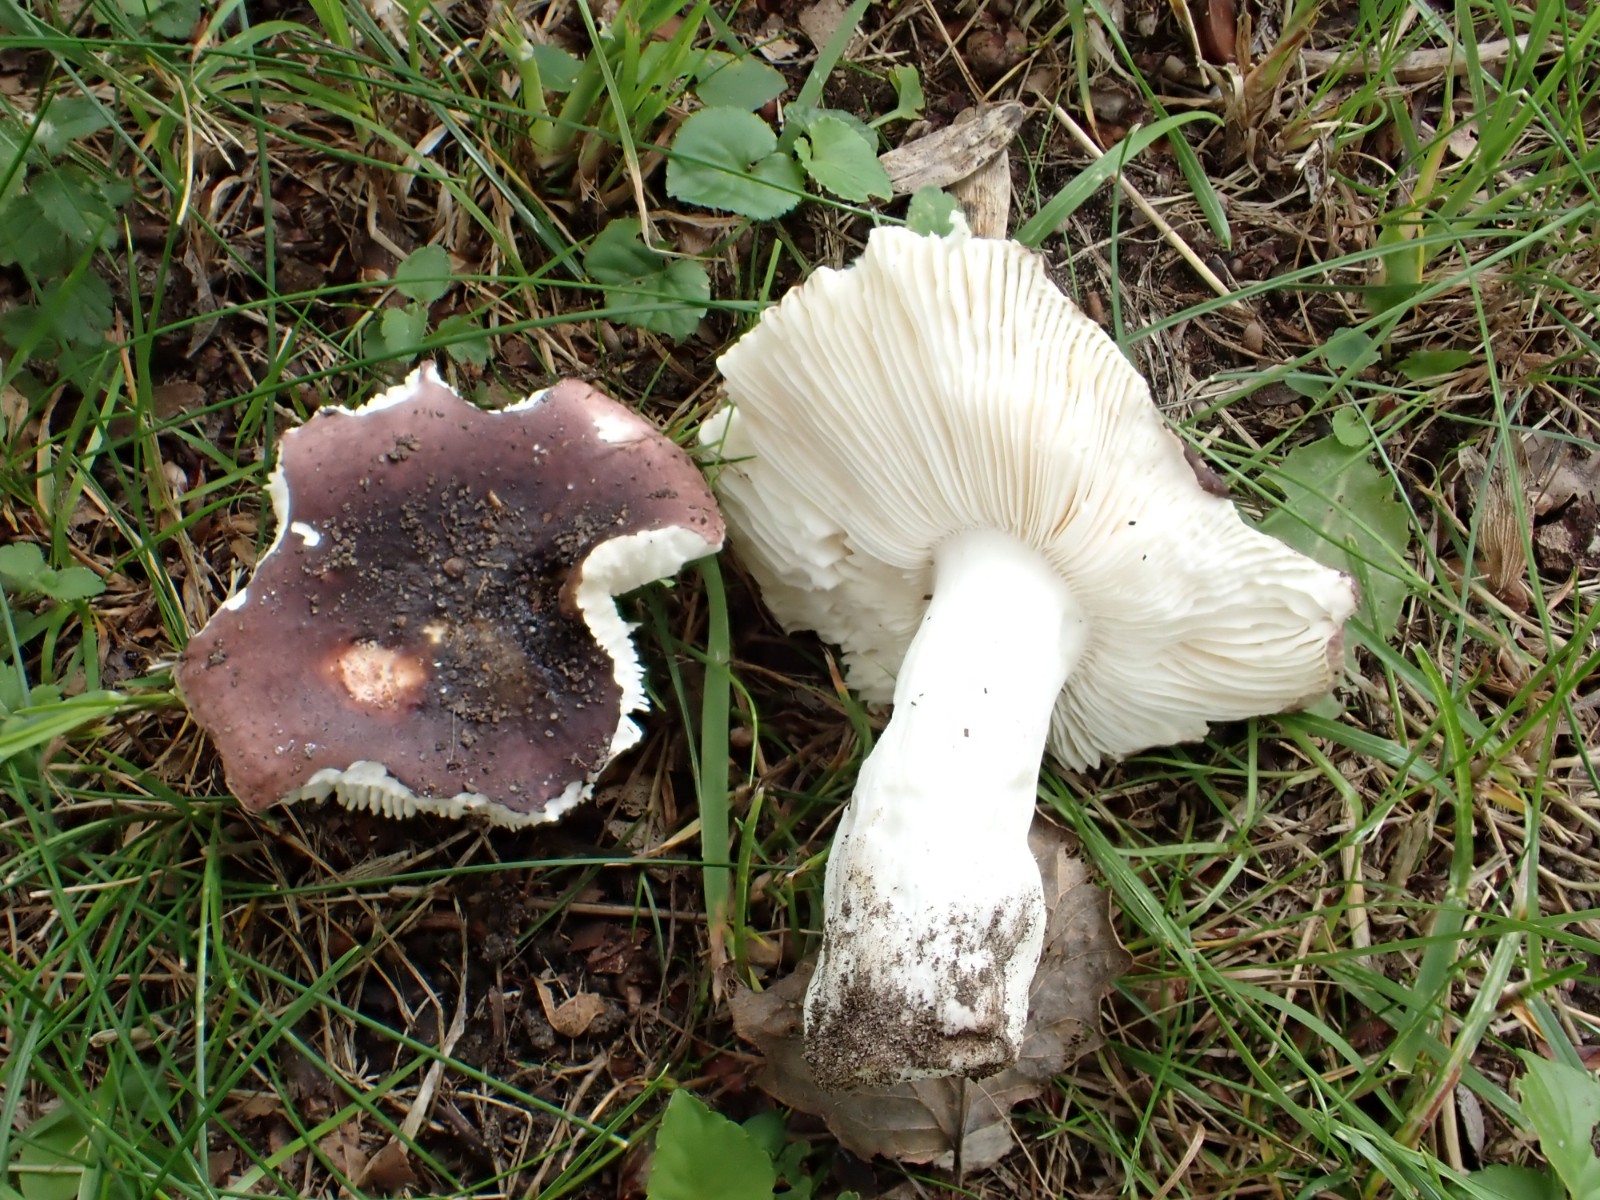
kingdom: Fungi
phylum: Basidiomycota
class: Agaricomycetes
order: Russulales
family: Russulaceae
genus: Russula
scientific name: Russula pelargonia
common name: pelargonie-skørhat
